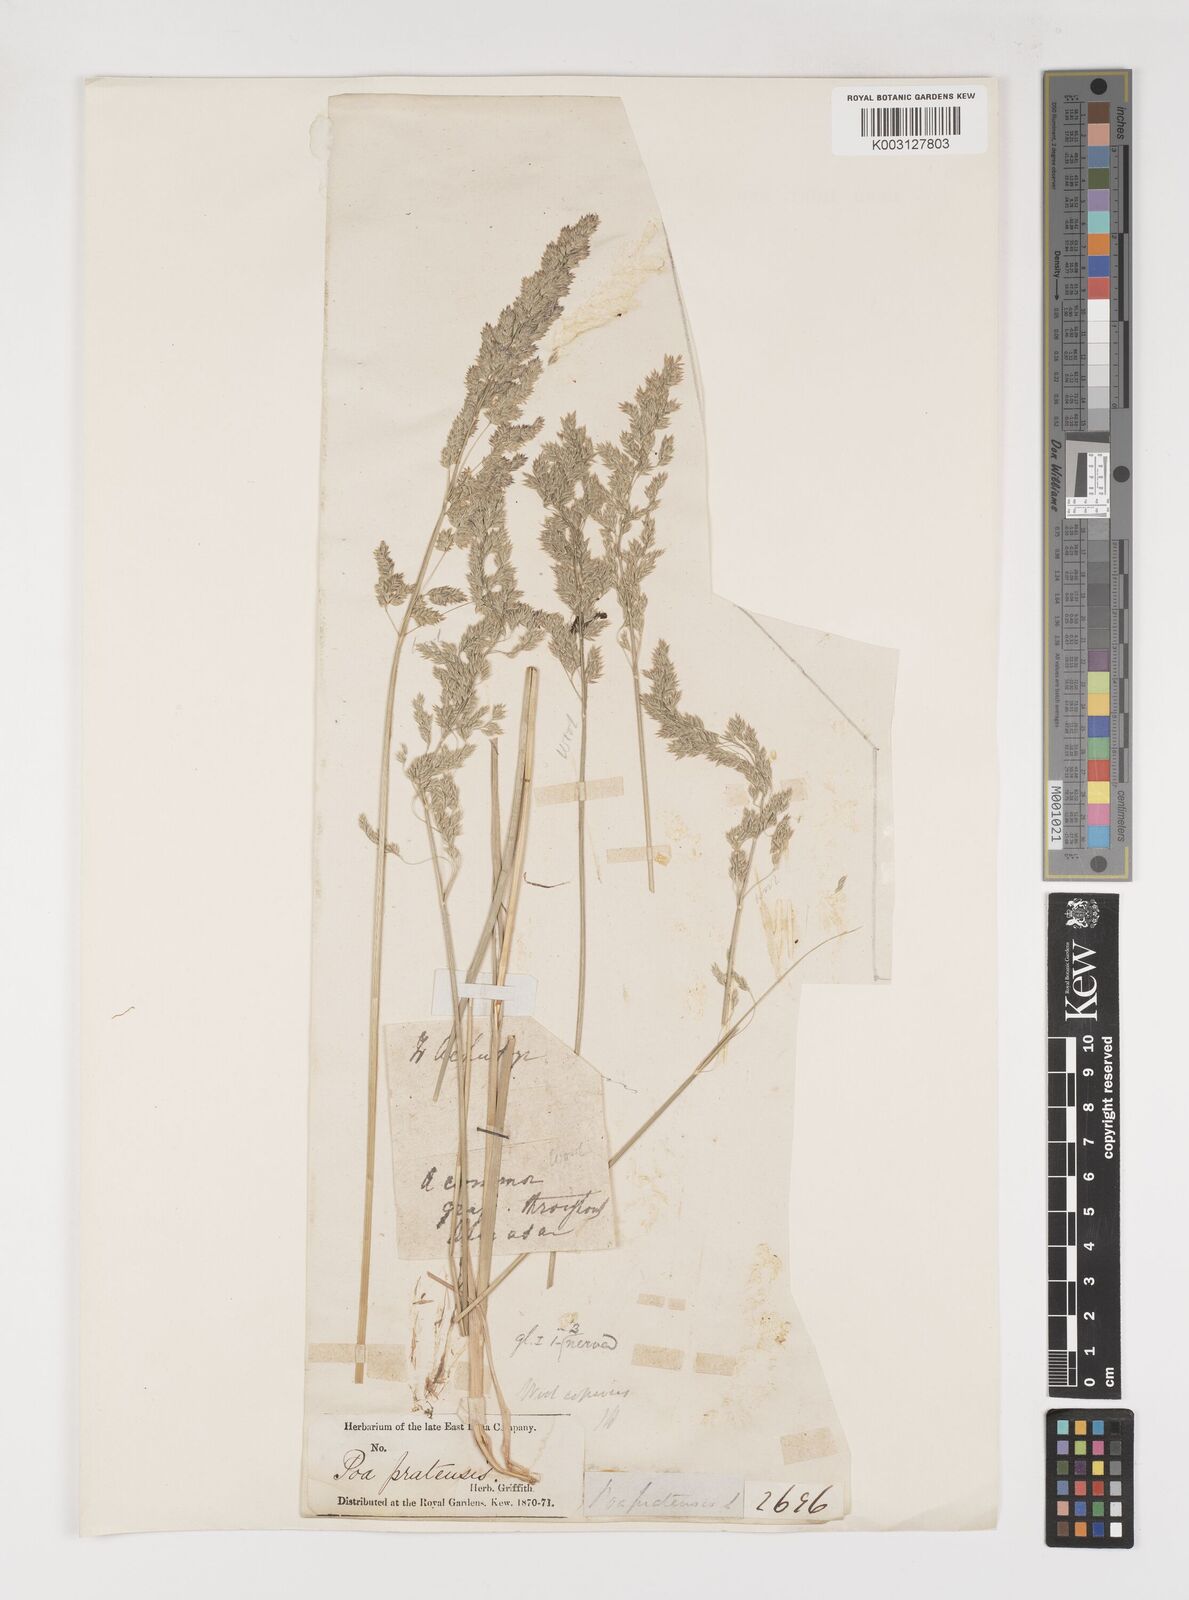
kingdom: Plantae
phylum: Tracheophyta
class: Liliopsida
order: Poales
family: Poaceae
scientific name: Poaceae
